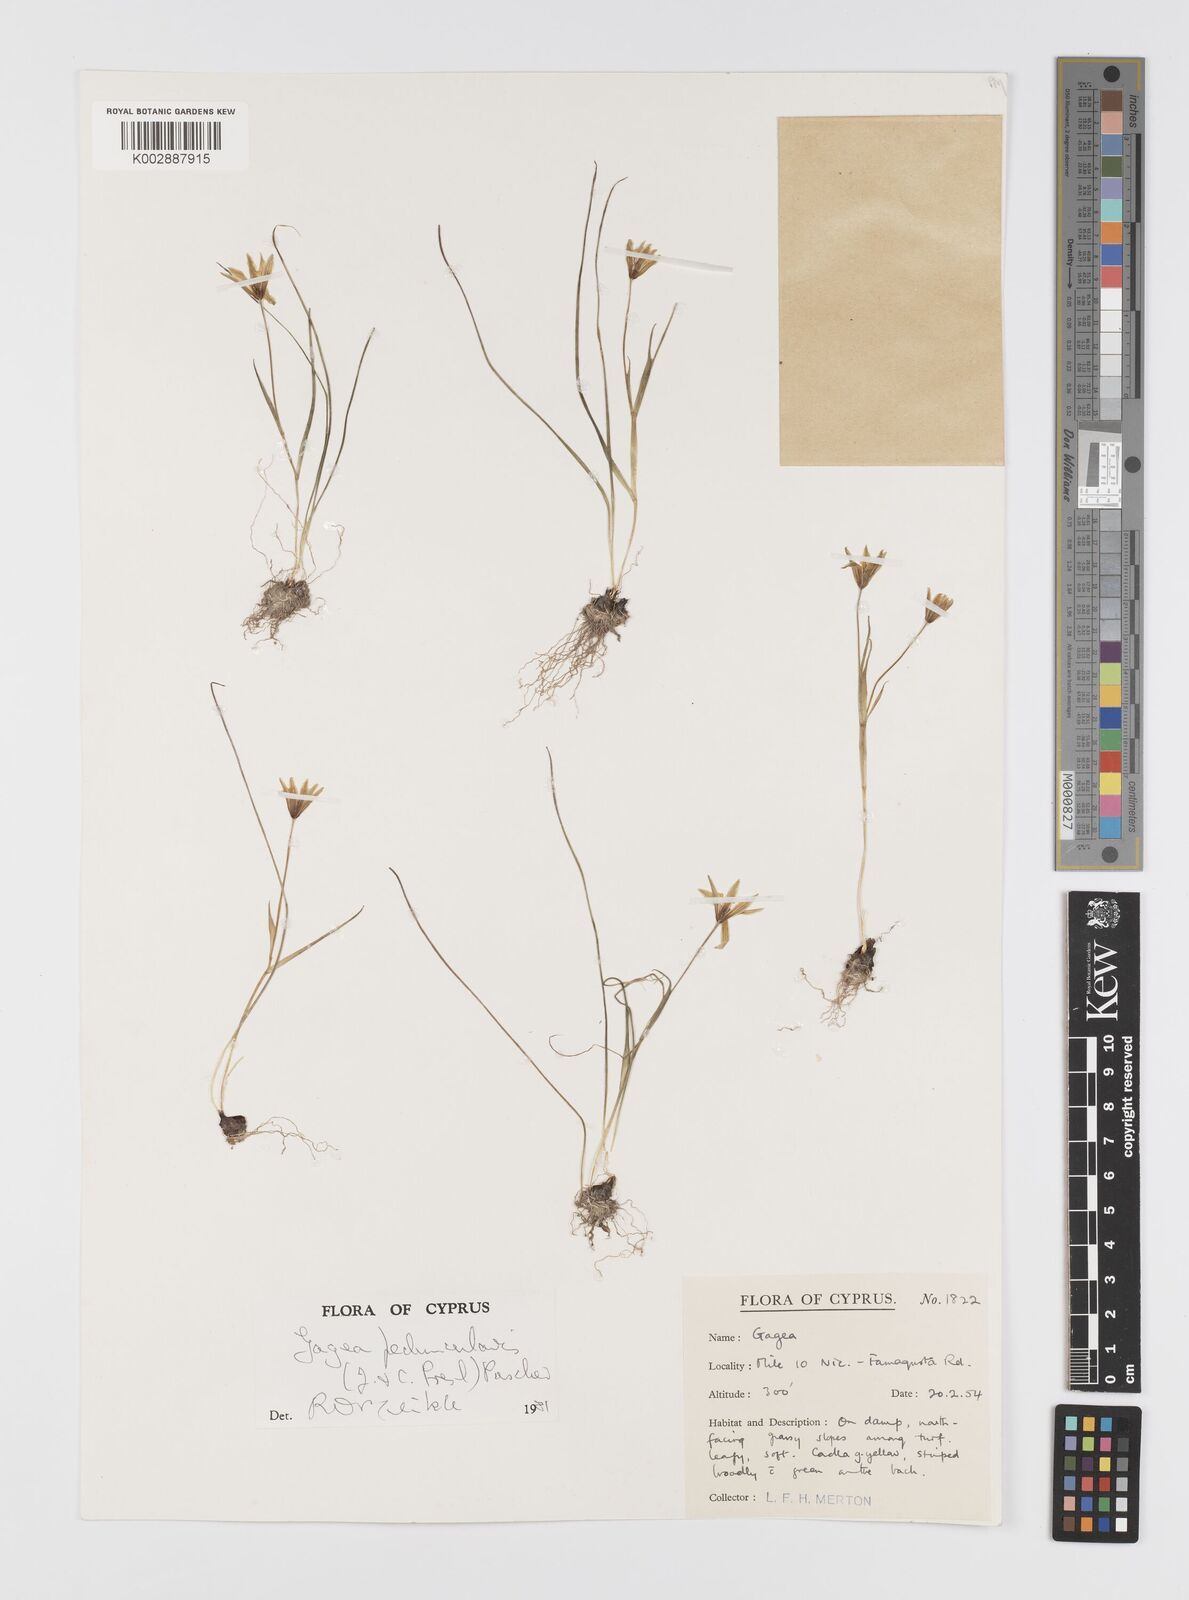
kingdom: Plantae
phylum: Tracheophyta
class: Liliopsida
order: Liliales
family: Liliaceae
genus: Gagea
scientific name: Gagea peduncularis
